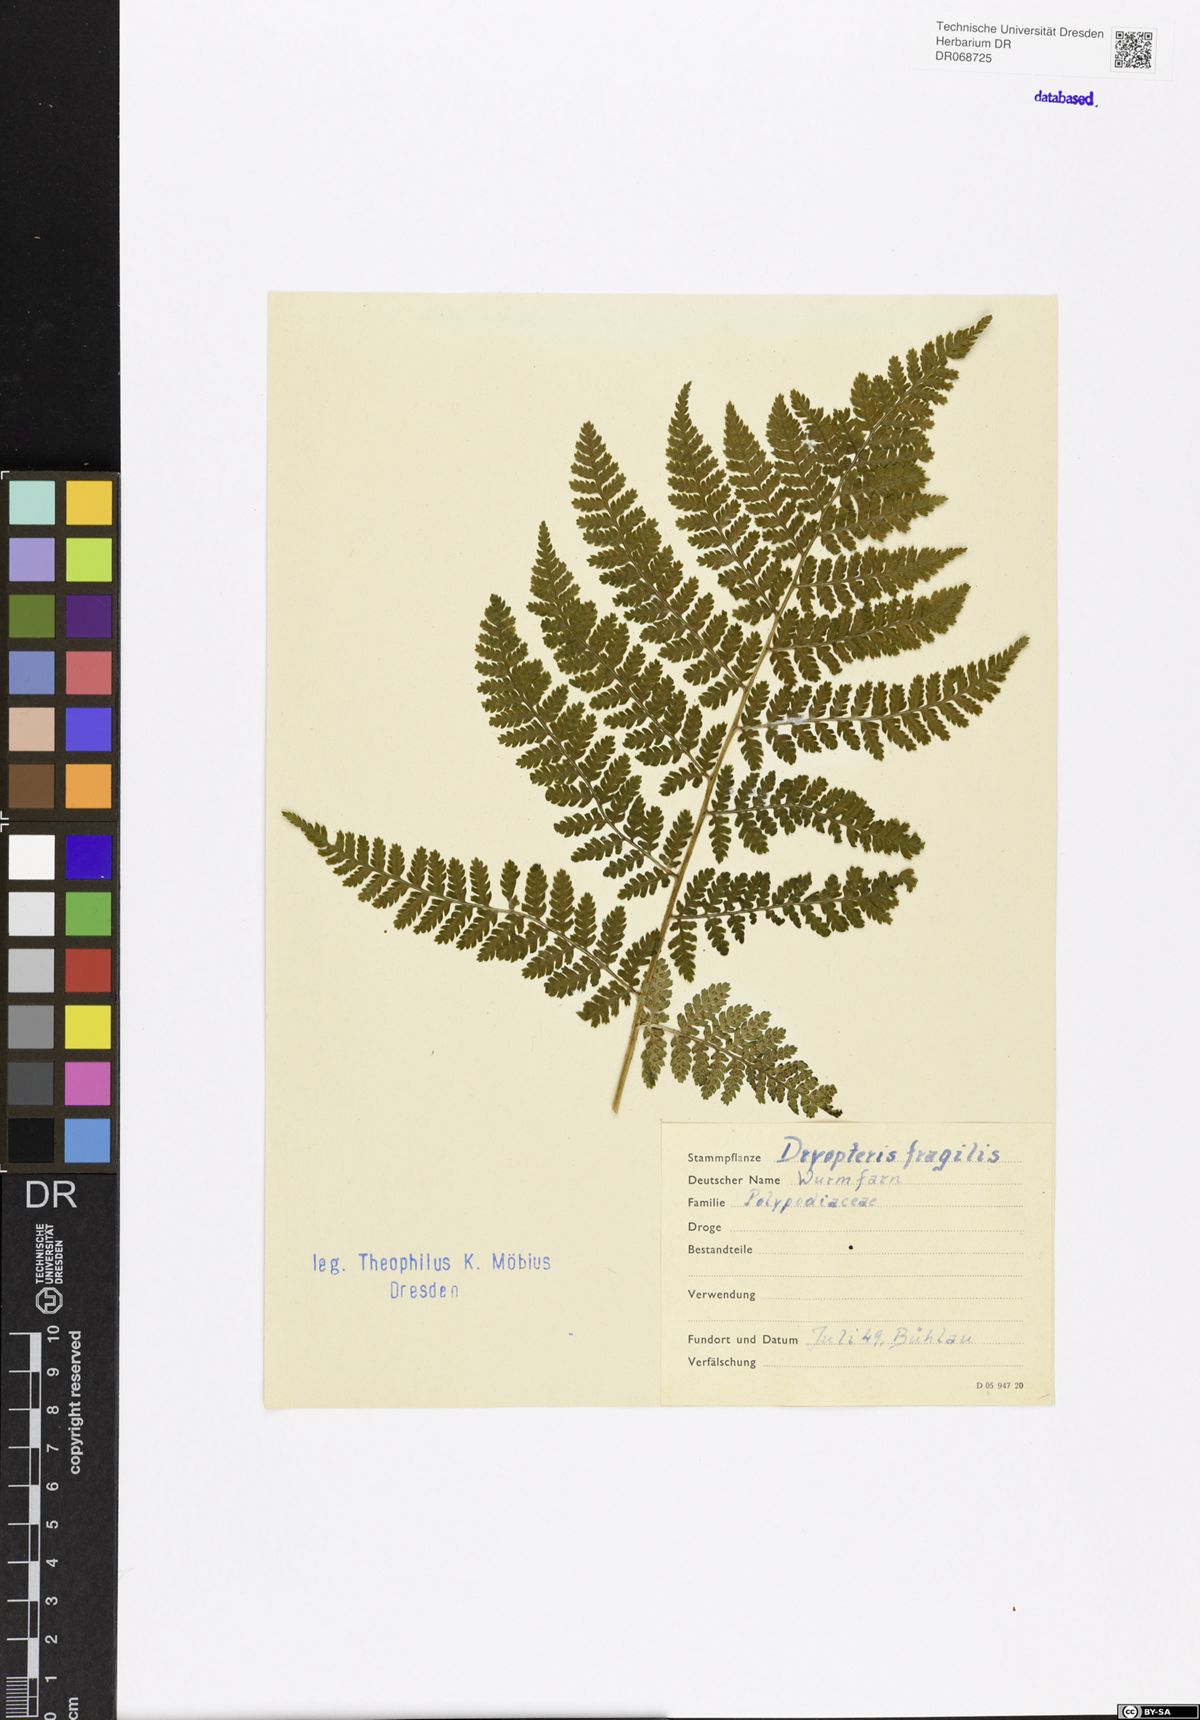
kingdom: Plantae
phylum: Tracheophyta
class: Polypodiopsida
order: Polypodiales
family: Dryopteridaceae
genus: Dryopteris
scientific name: Dryopteris filix-mas
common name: Male fern
